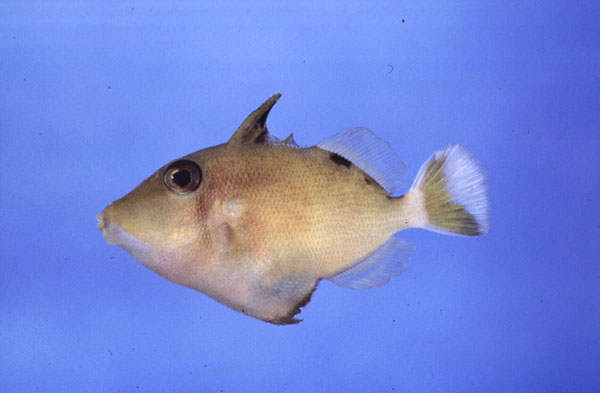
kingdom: Animalia
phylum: Chordata
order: Tetraodontiformes
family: Balistidae
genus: Sufflamen
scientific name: Sufflamen chrysopterum
